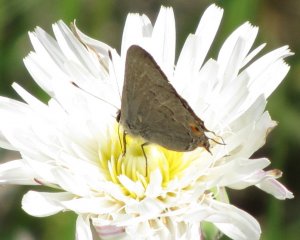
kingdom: Animalia
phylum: Arthropoda
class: Insecta
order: Lepidoptera
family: Lycaenidae
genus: Strymon
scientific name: Strymon melinus
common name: Gray Hairstreak
